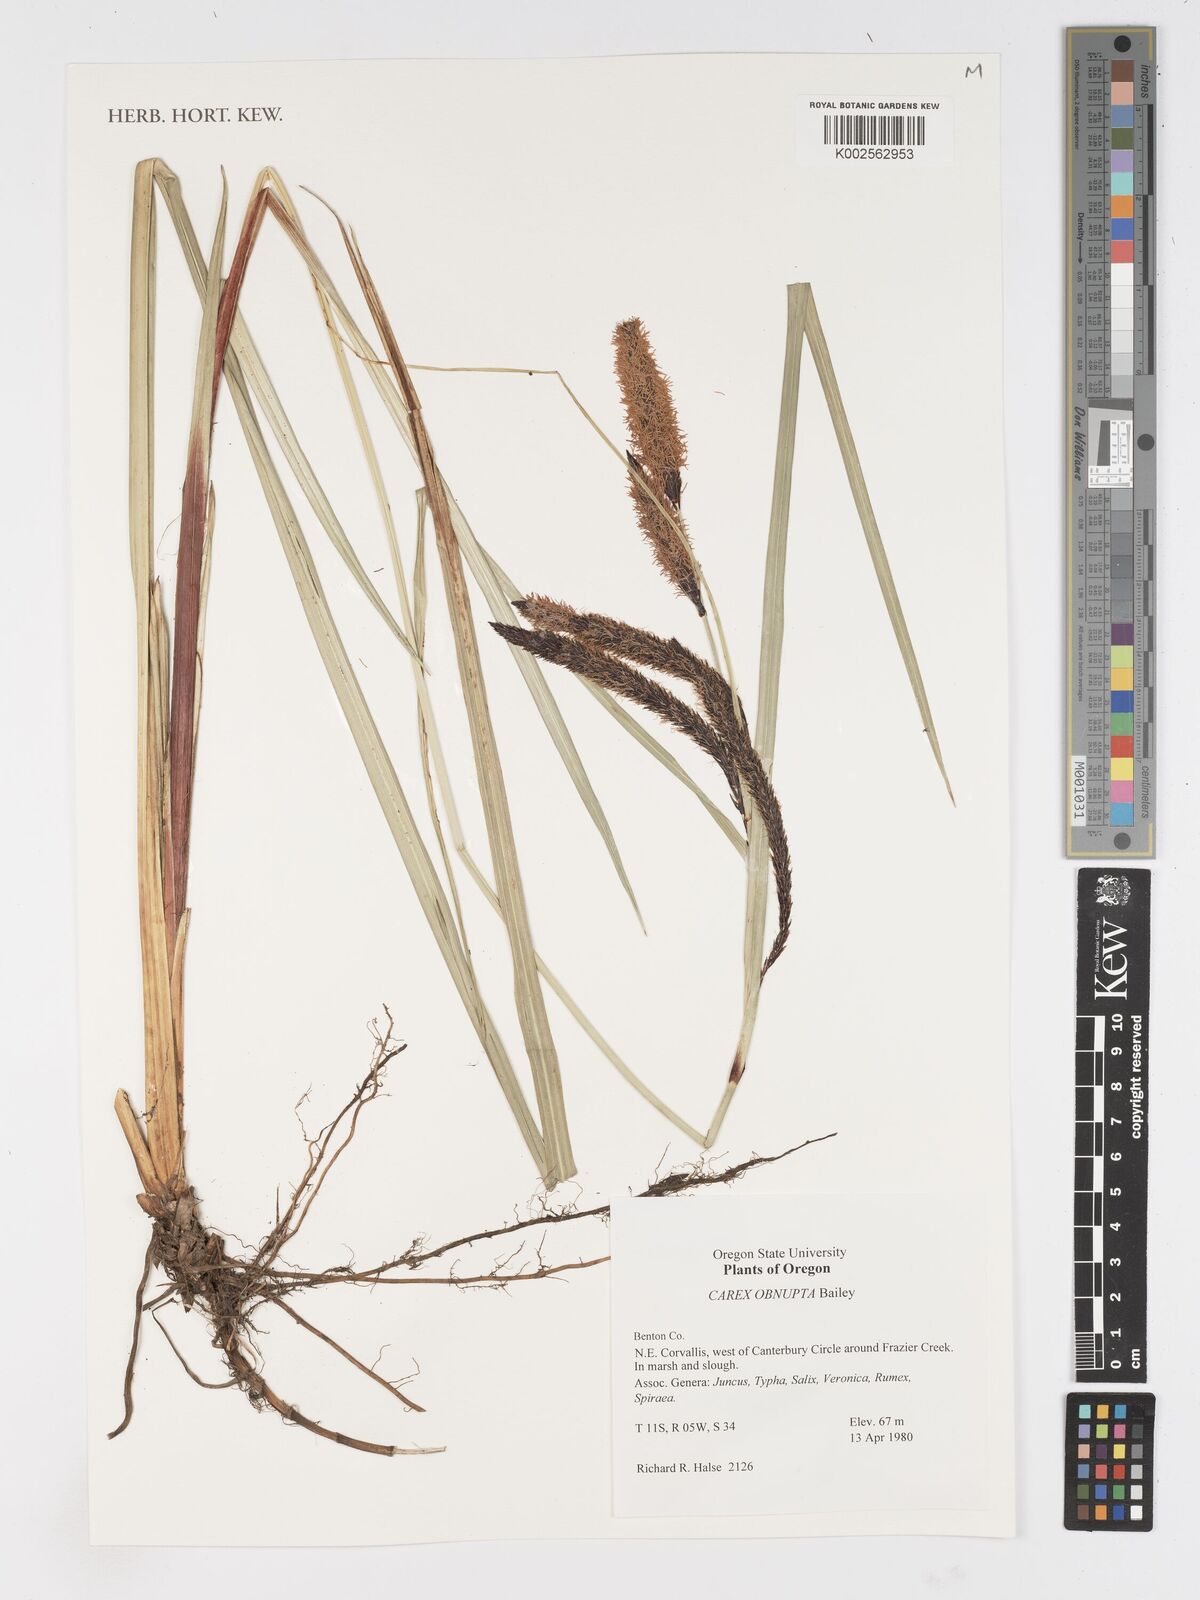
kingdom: Plantae
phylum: Tracheophyta
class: Liliopsida
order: Poales
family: Cyperaceae
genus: Carex
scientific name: Carex obnupta
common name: Slough sedge
